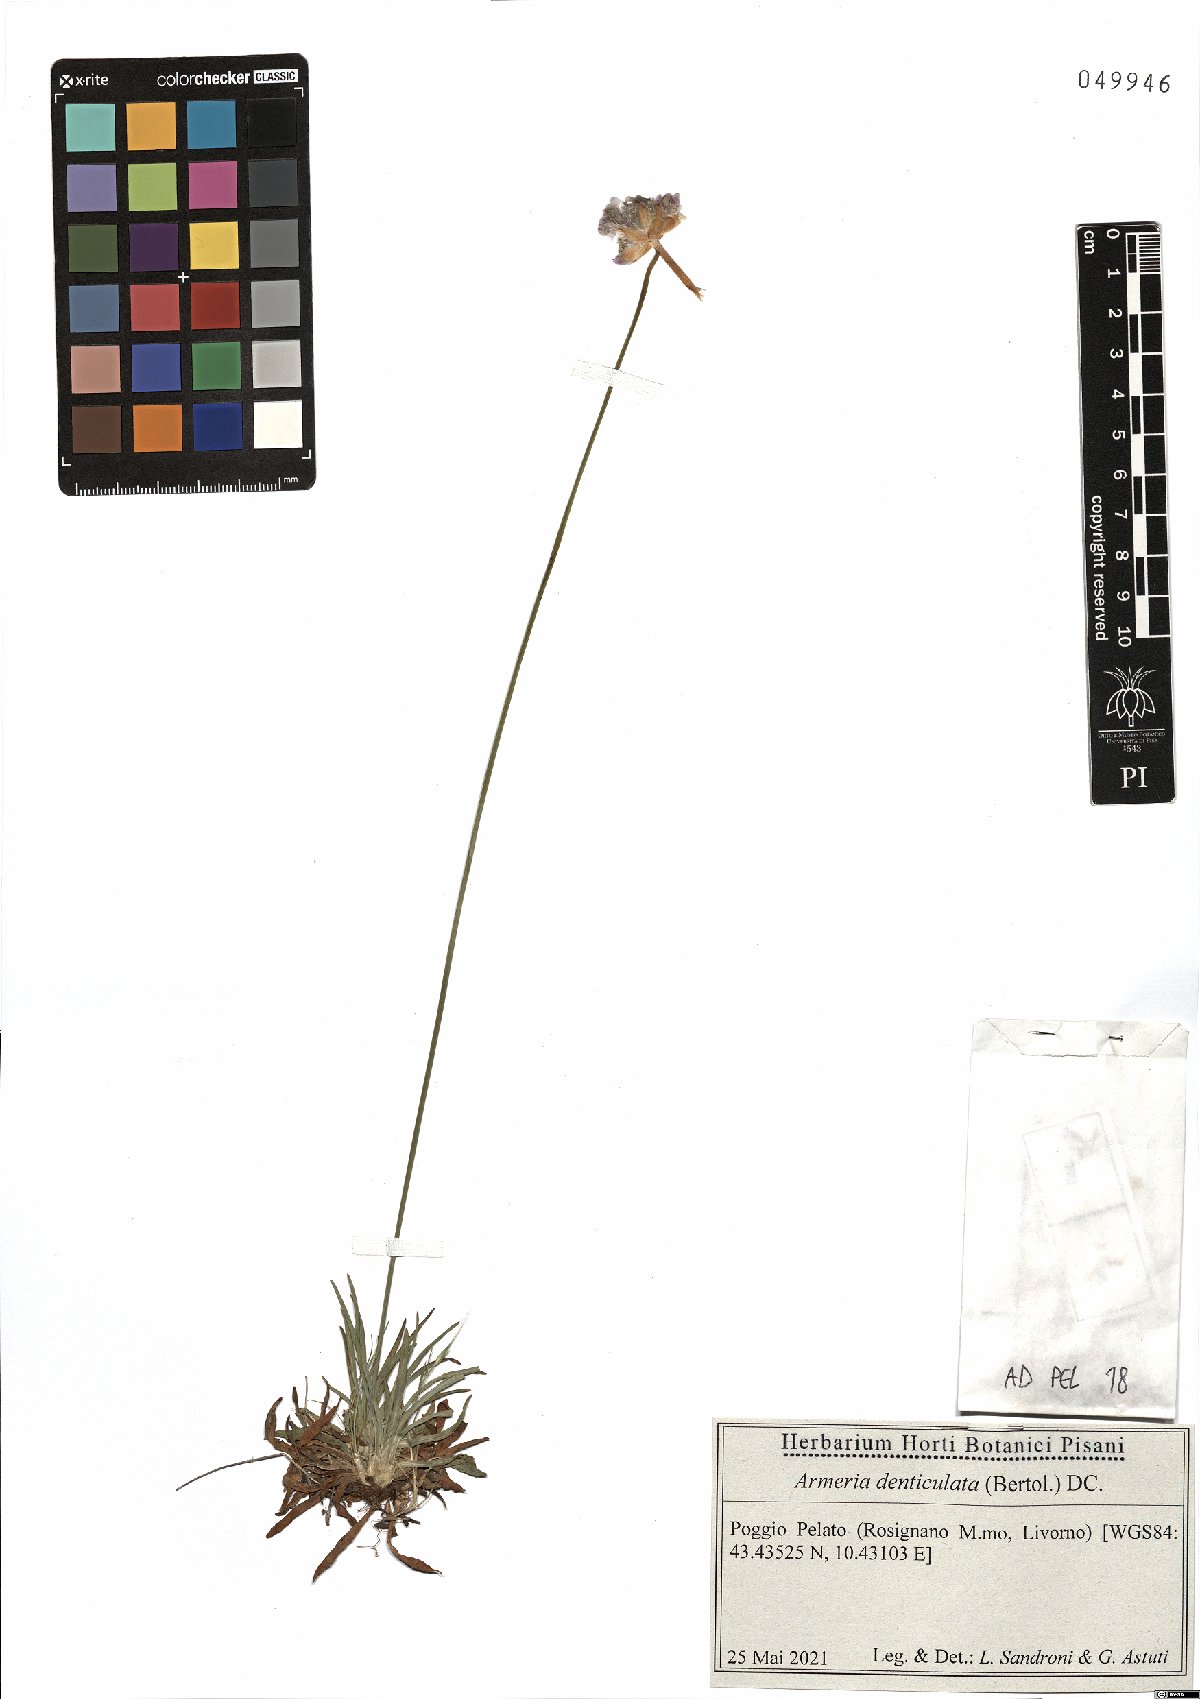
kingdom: Plantae
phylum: Tracheophyta
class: Magnoliopsida
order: Caryophyllales
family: Plumbaginaceae
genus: Armeria
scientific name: Armeria denticulata
